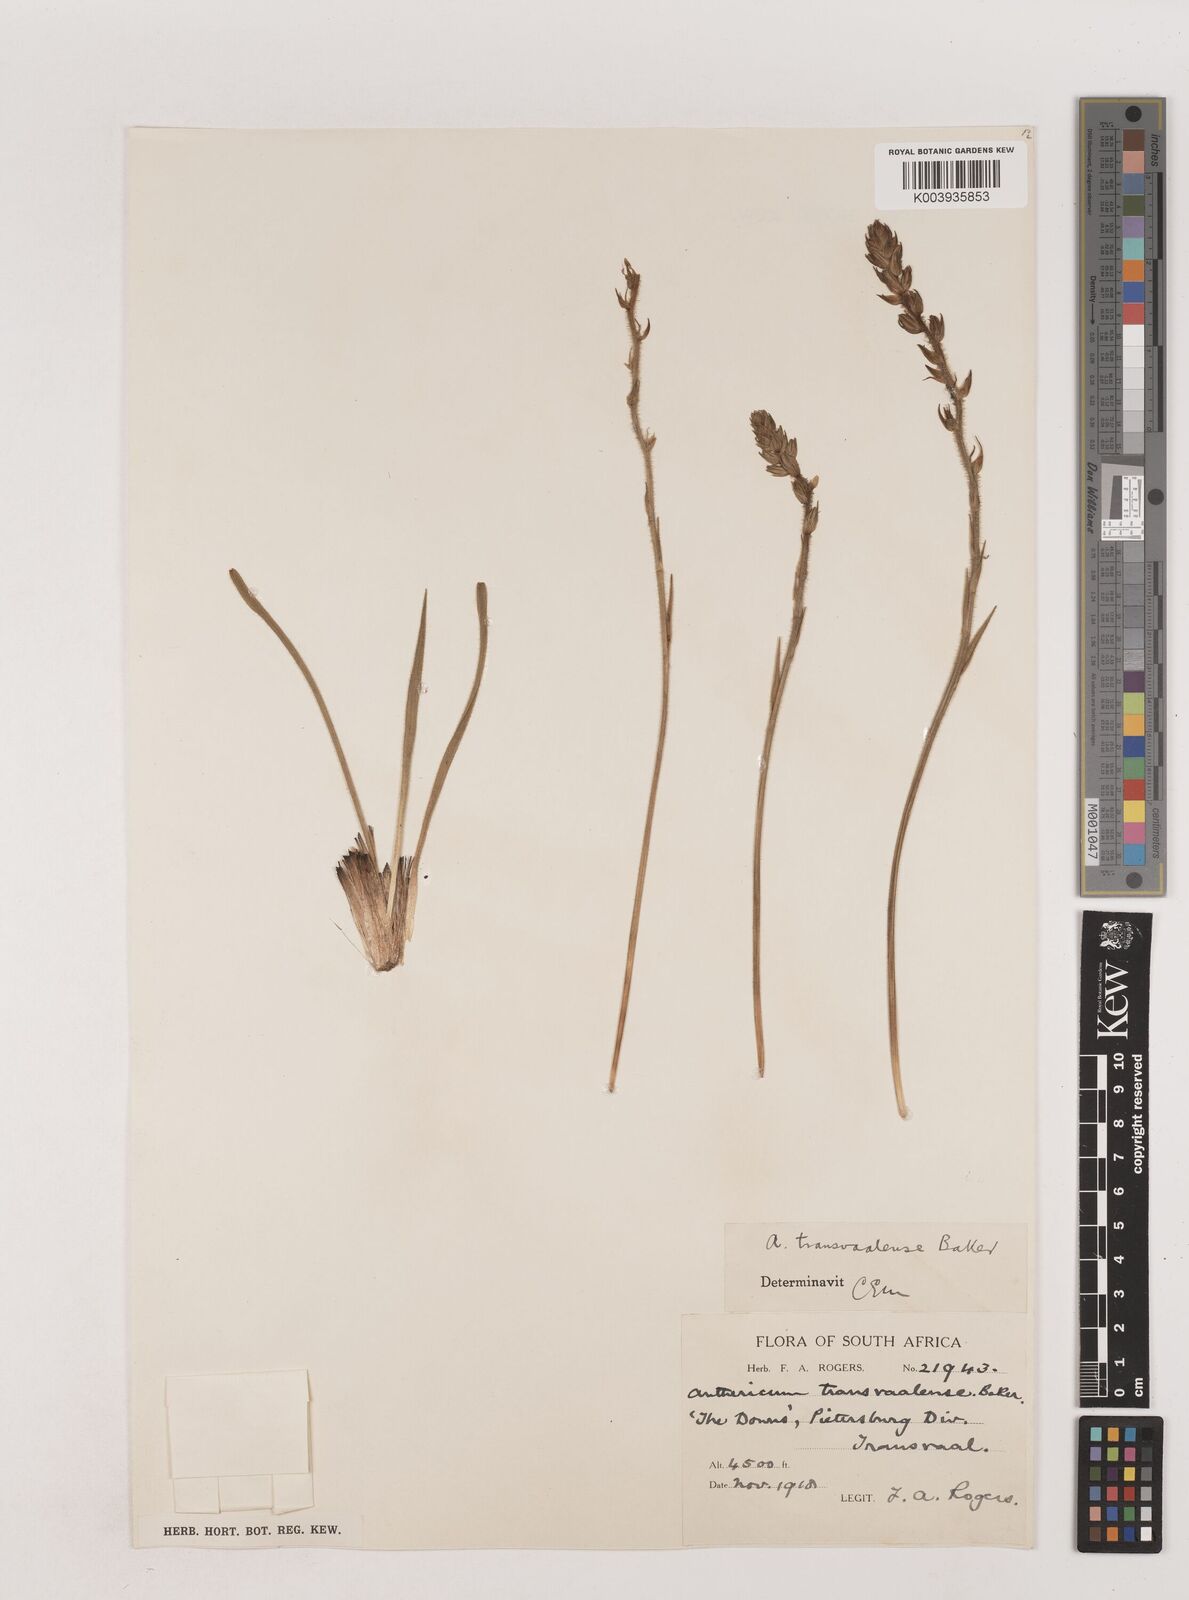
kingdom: Plantae
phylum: Tracheophyta
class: Liliopsida
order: Asparagales
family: Asparagaceae
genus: Chlorophytum
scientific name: Chlorophytum transvaalense
